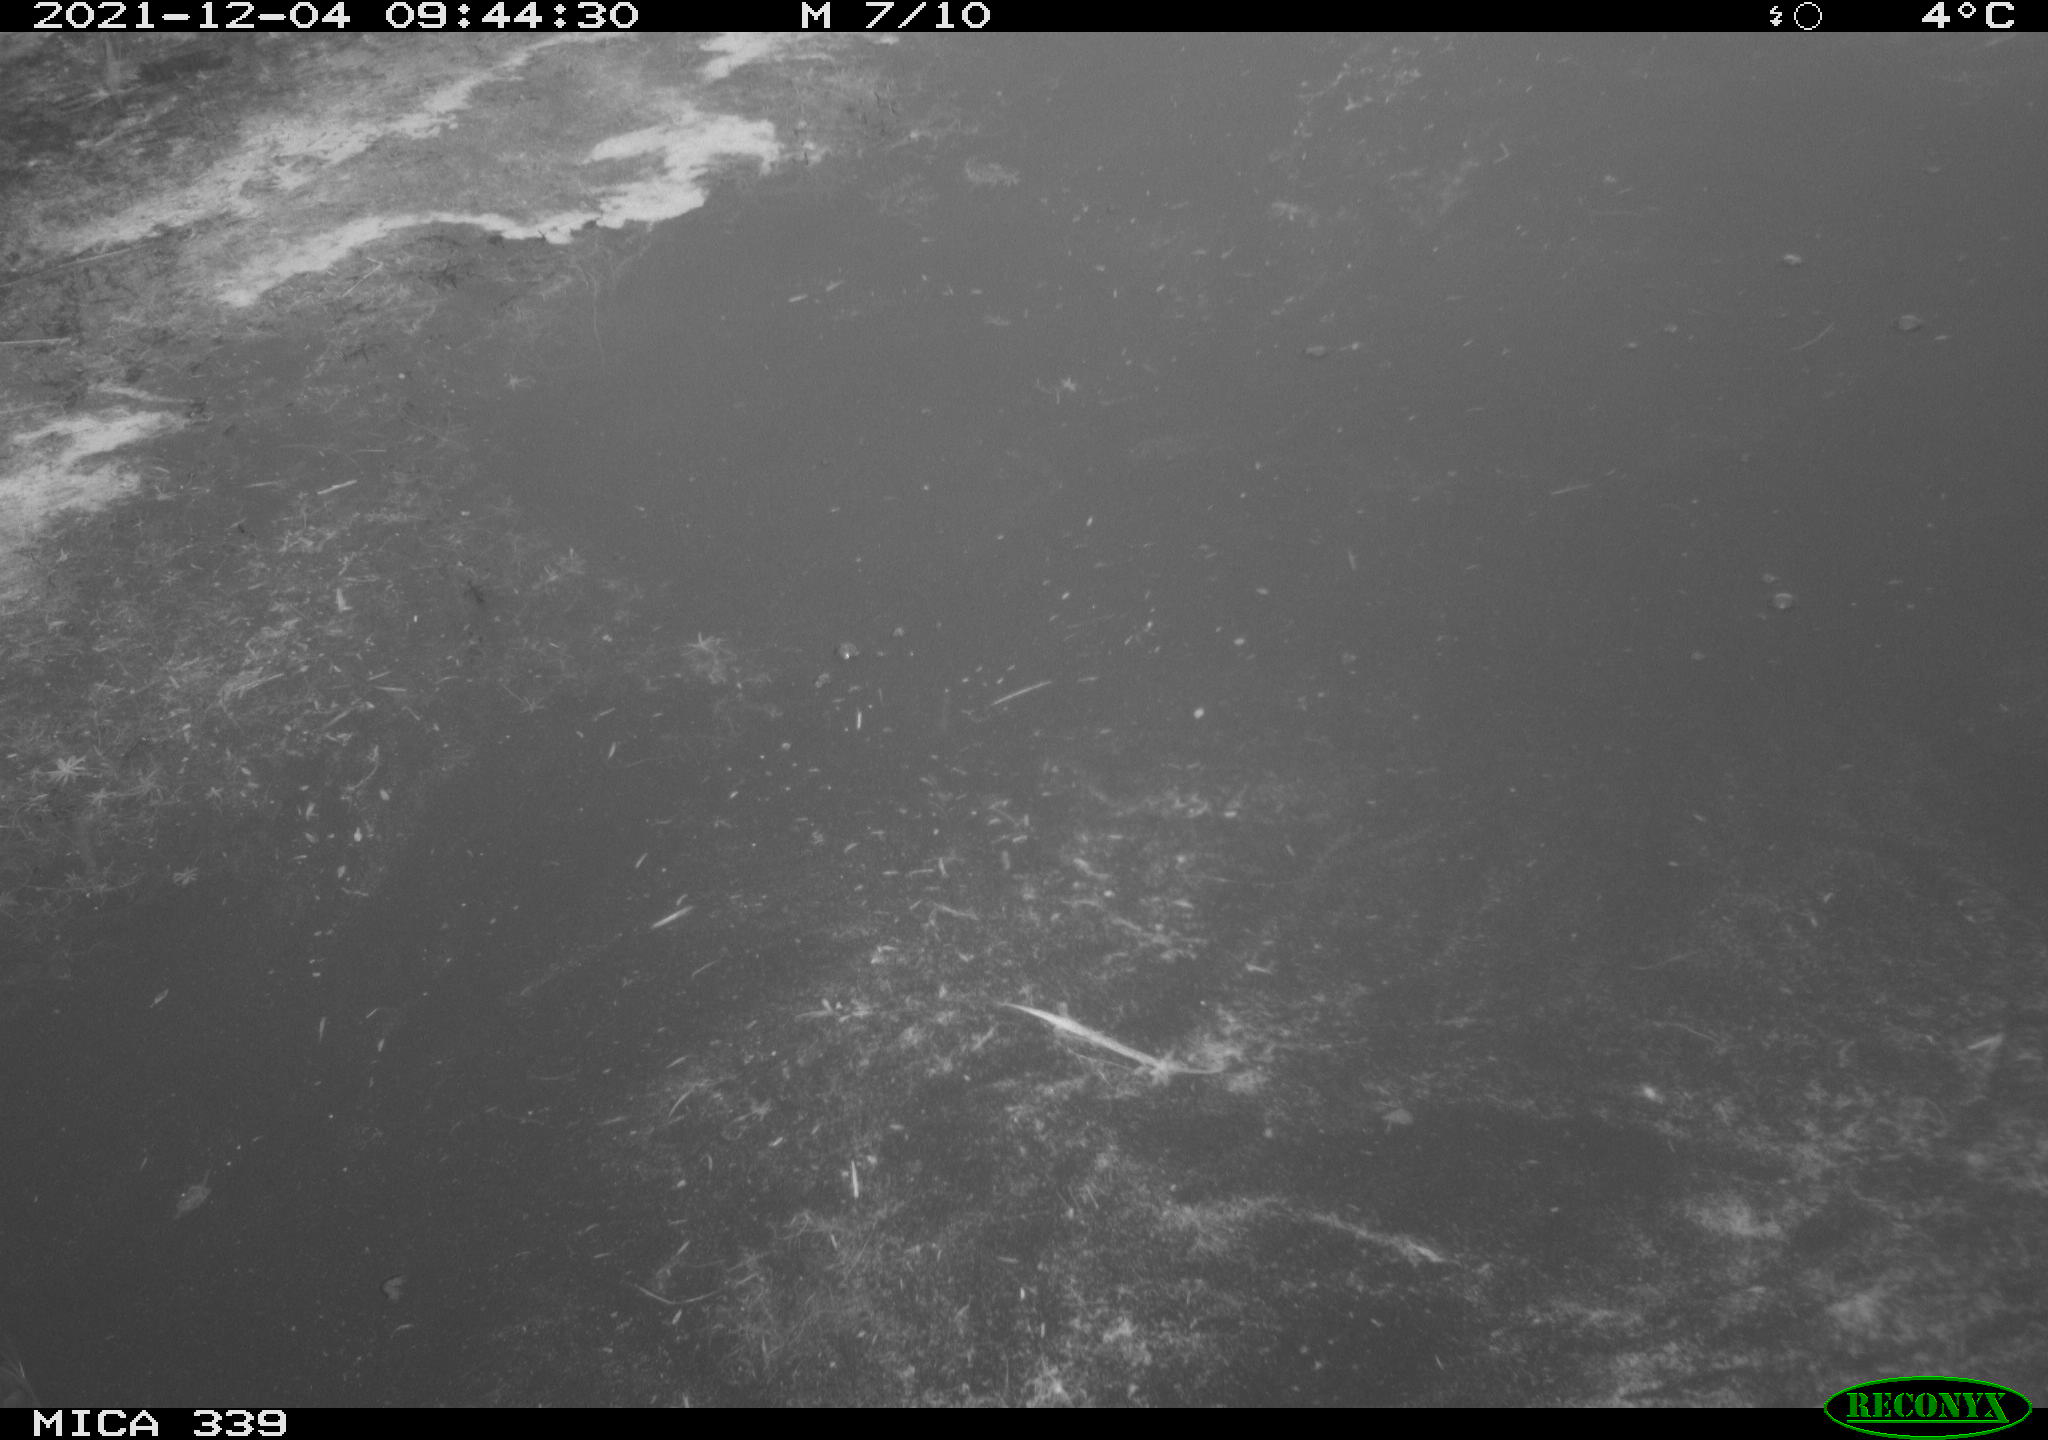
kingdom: Animalia
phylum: Chordata
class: Aves
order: Gruiformes
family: Rallidae
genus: Gallinula
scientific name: Gallinula chloropus
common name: Common moorhen
